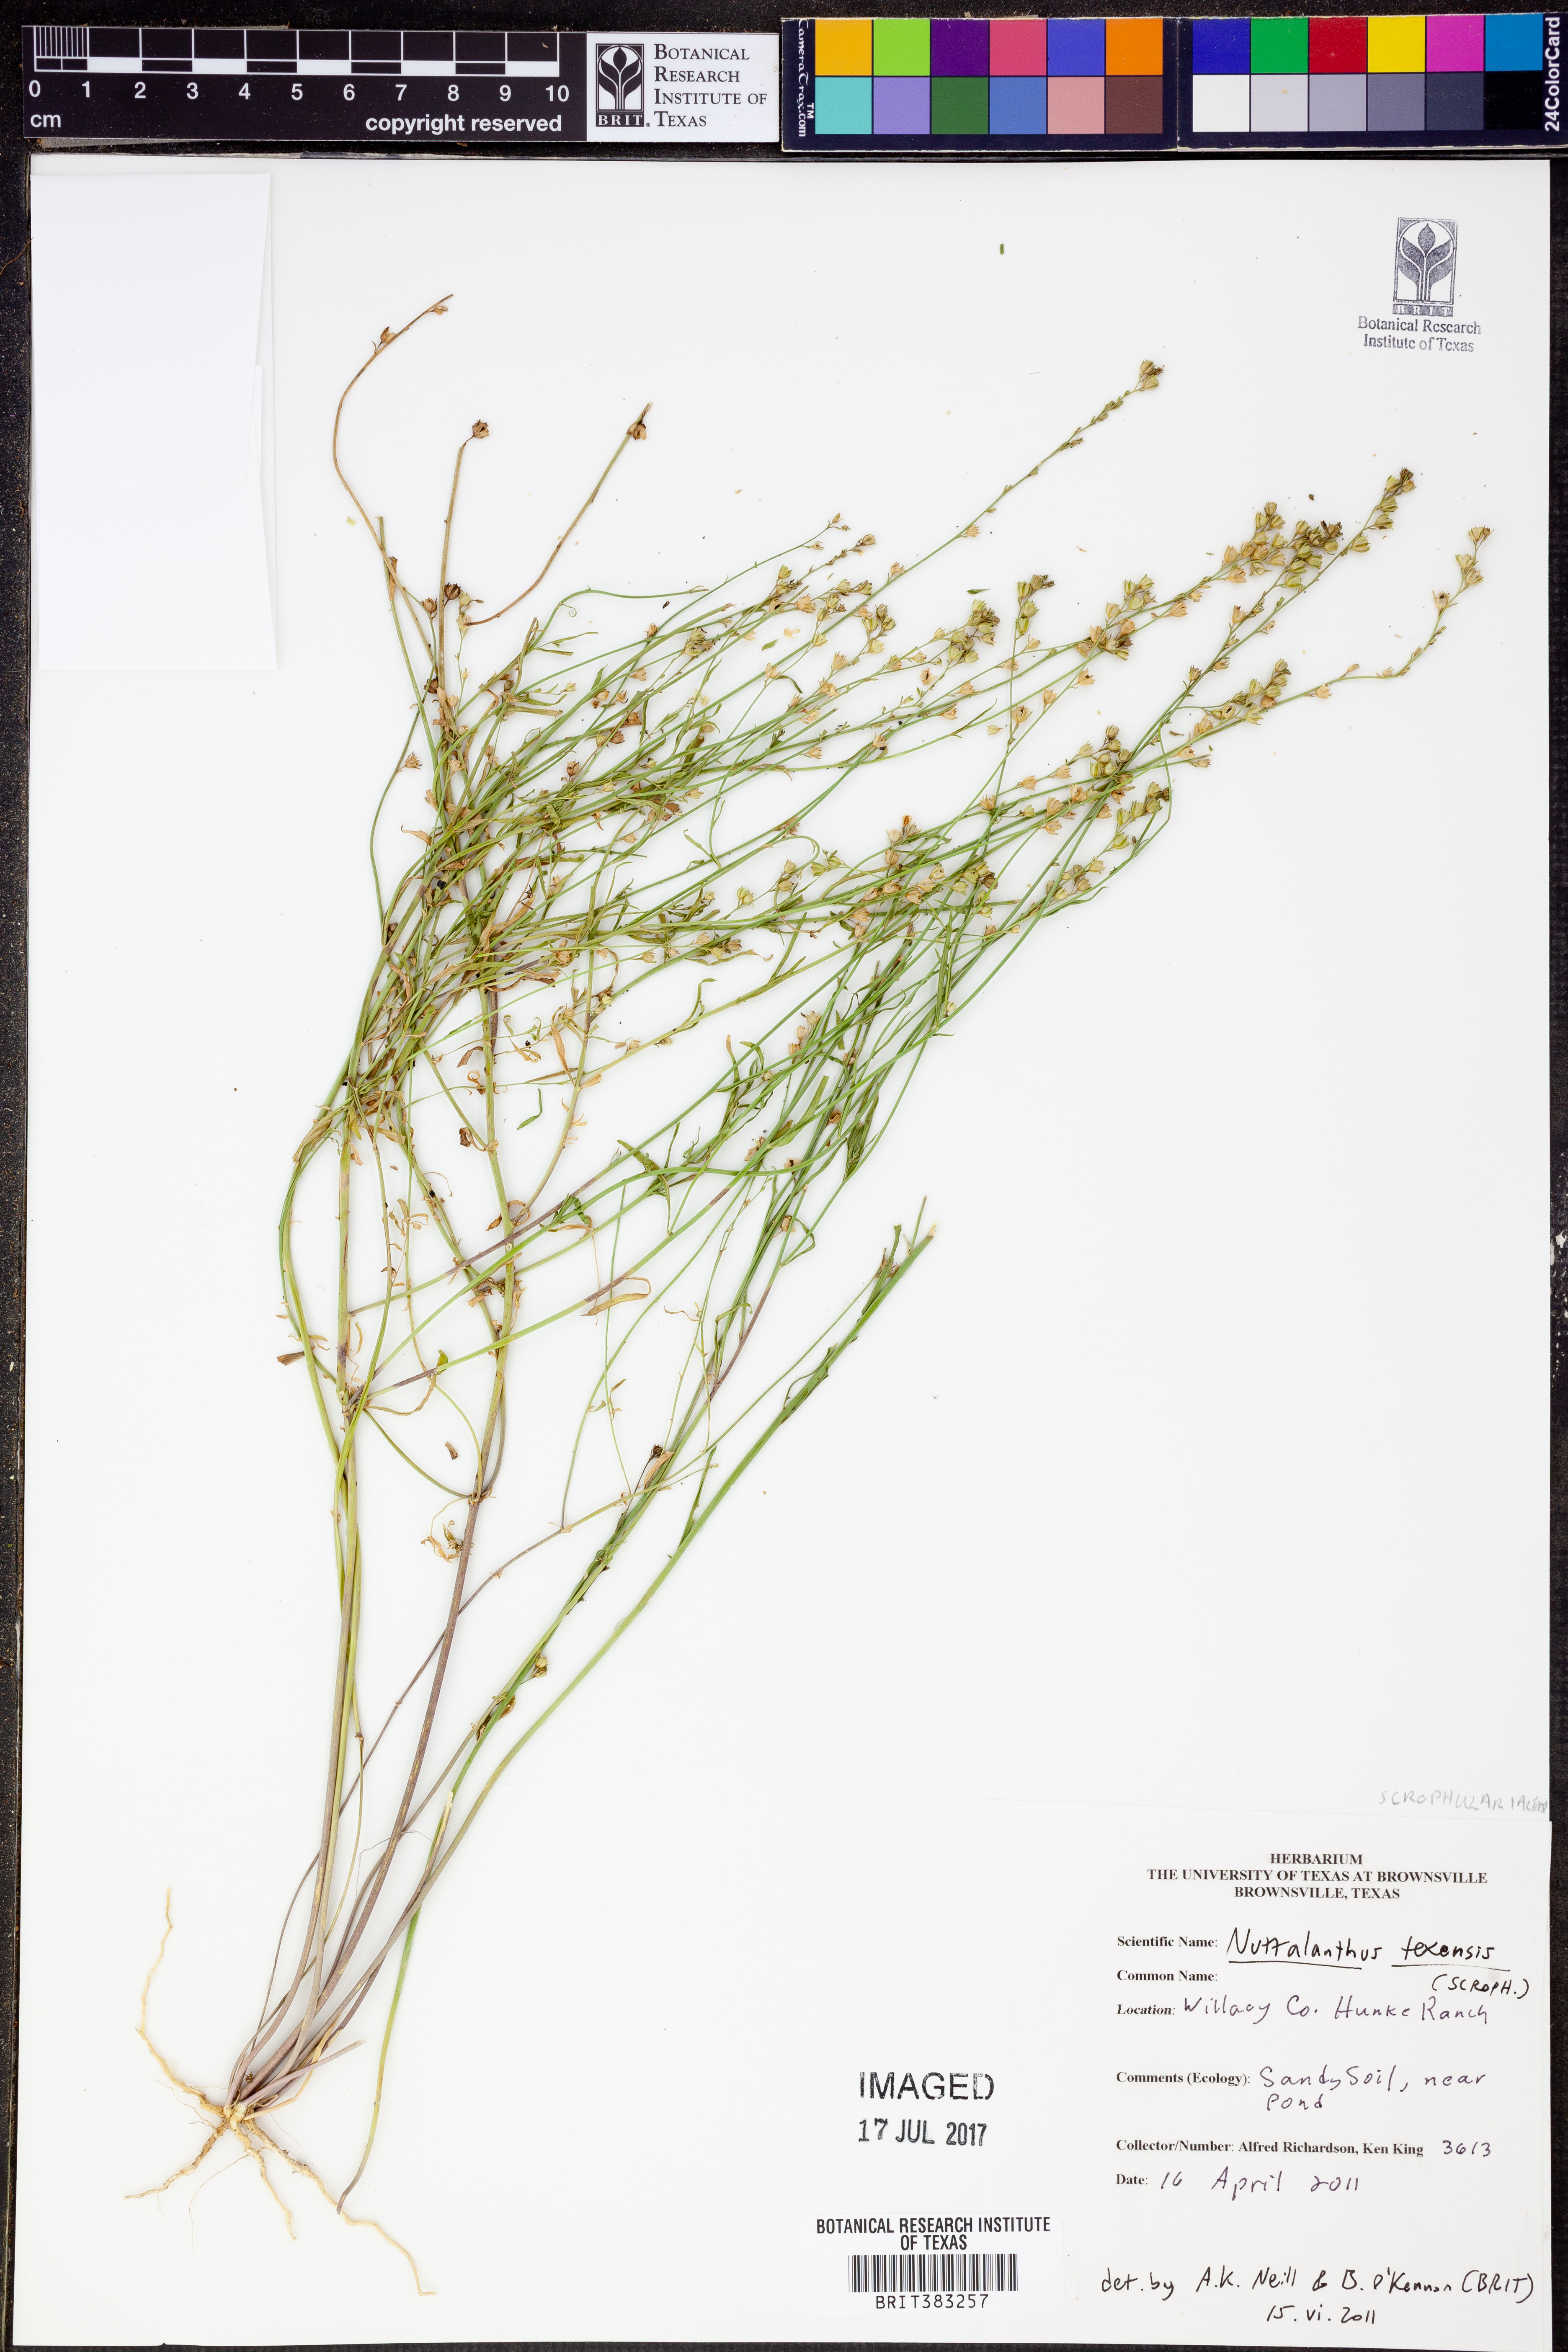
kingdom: Plantae
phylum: Tracheophyta
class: Magnoliopsida
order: Lamiales
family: Plantaginaceae
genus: Nuttallanthus
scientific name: Nuttallanthus texanus
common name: Texas toadflax
